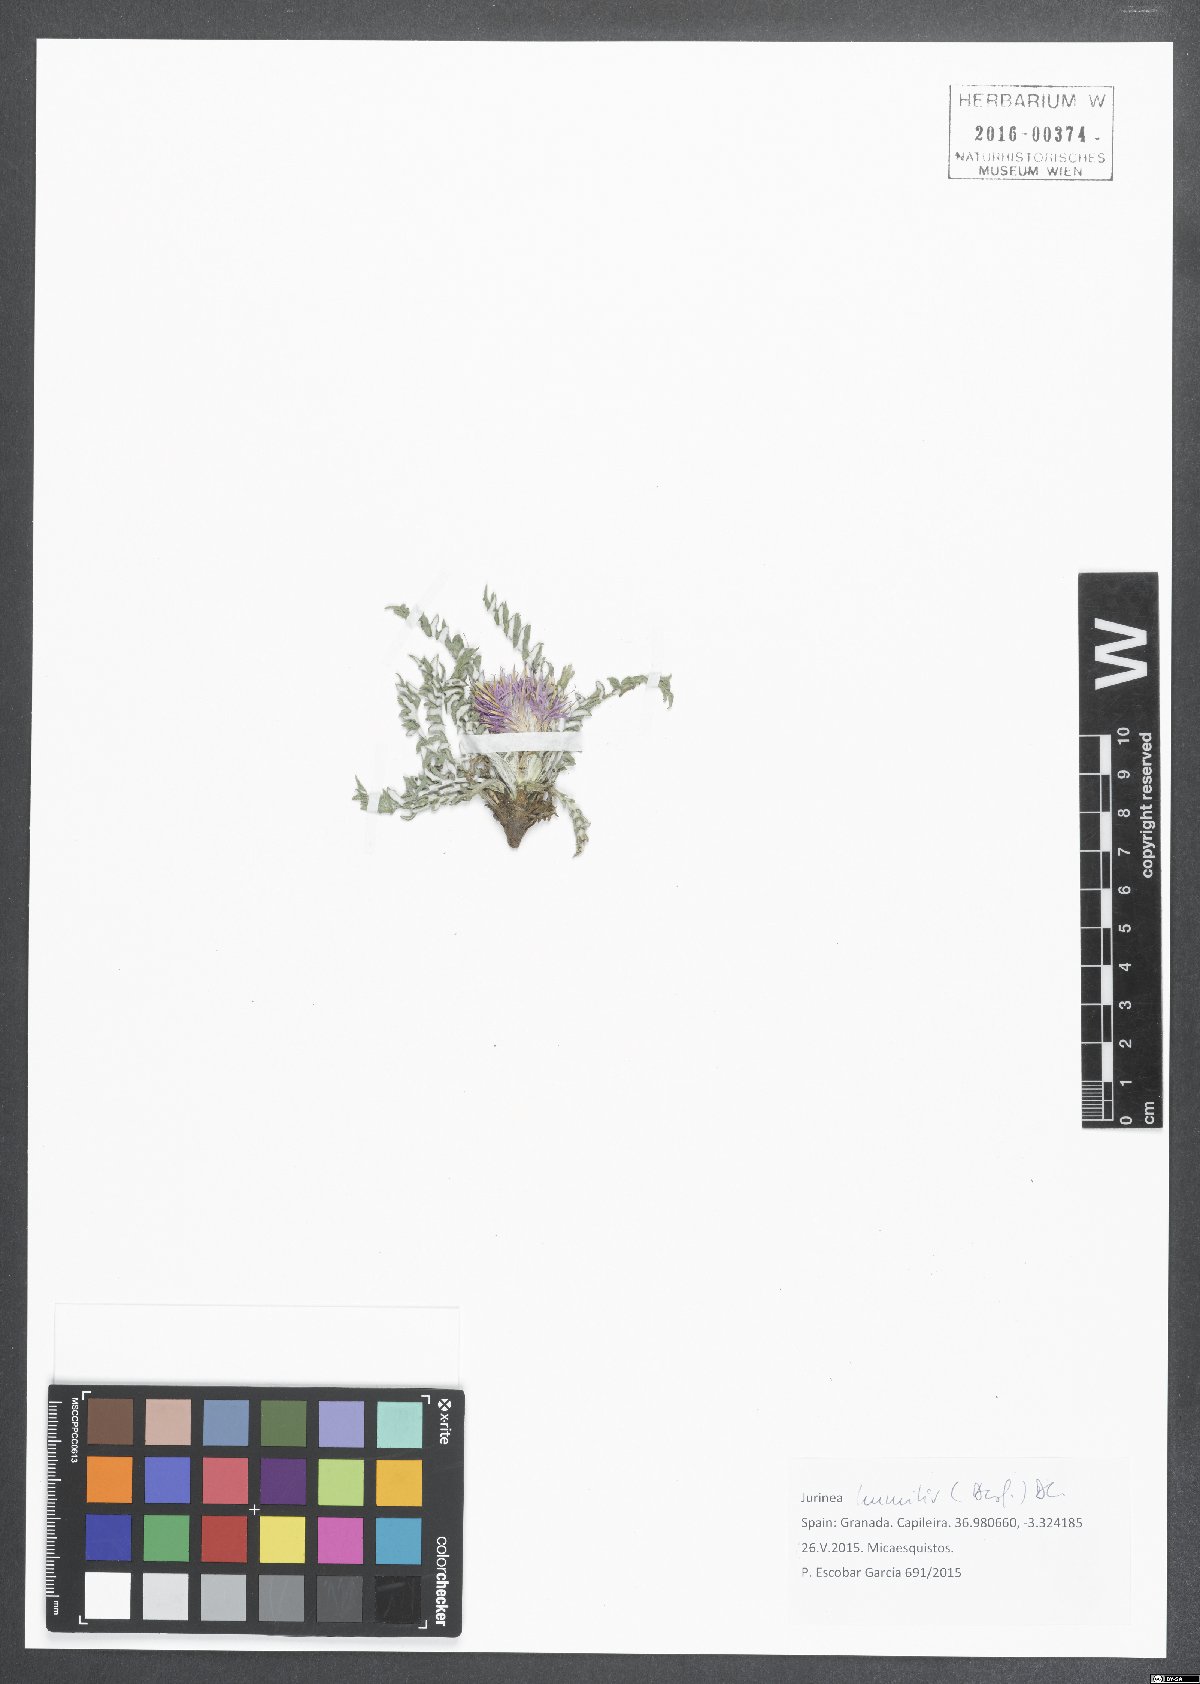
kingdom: Plantae
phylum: Tracheophyta
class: Magnoliopsida
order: Asterales
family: Asteraceae
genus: Jurinea
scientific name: Jurinea humilis
